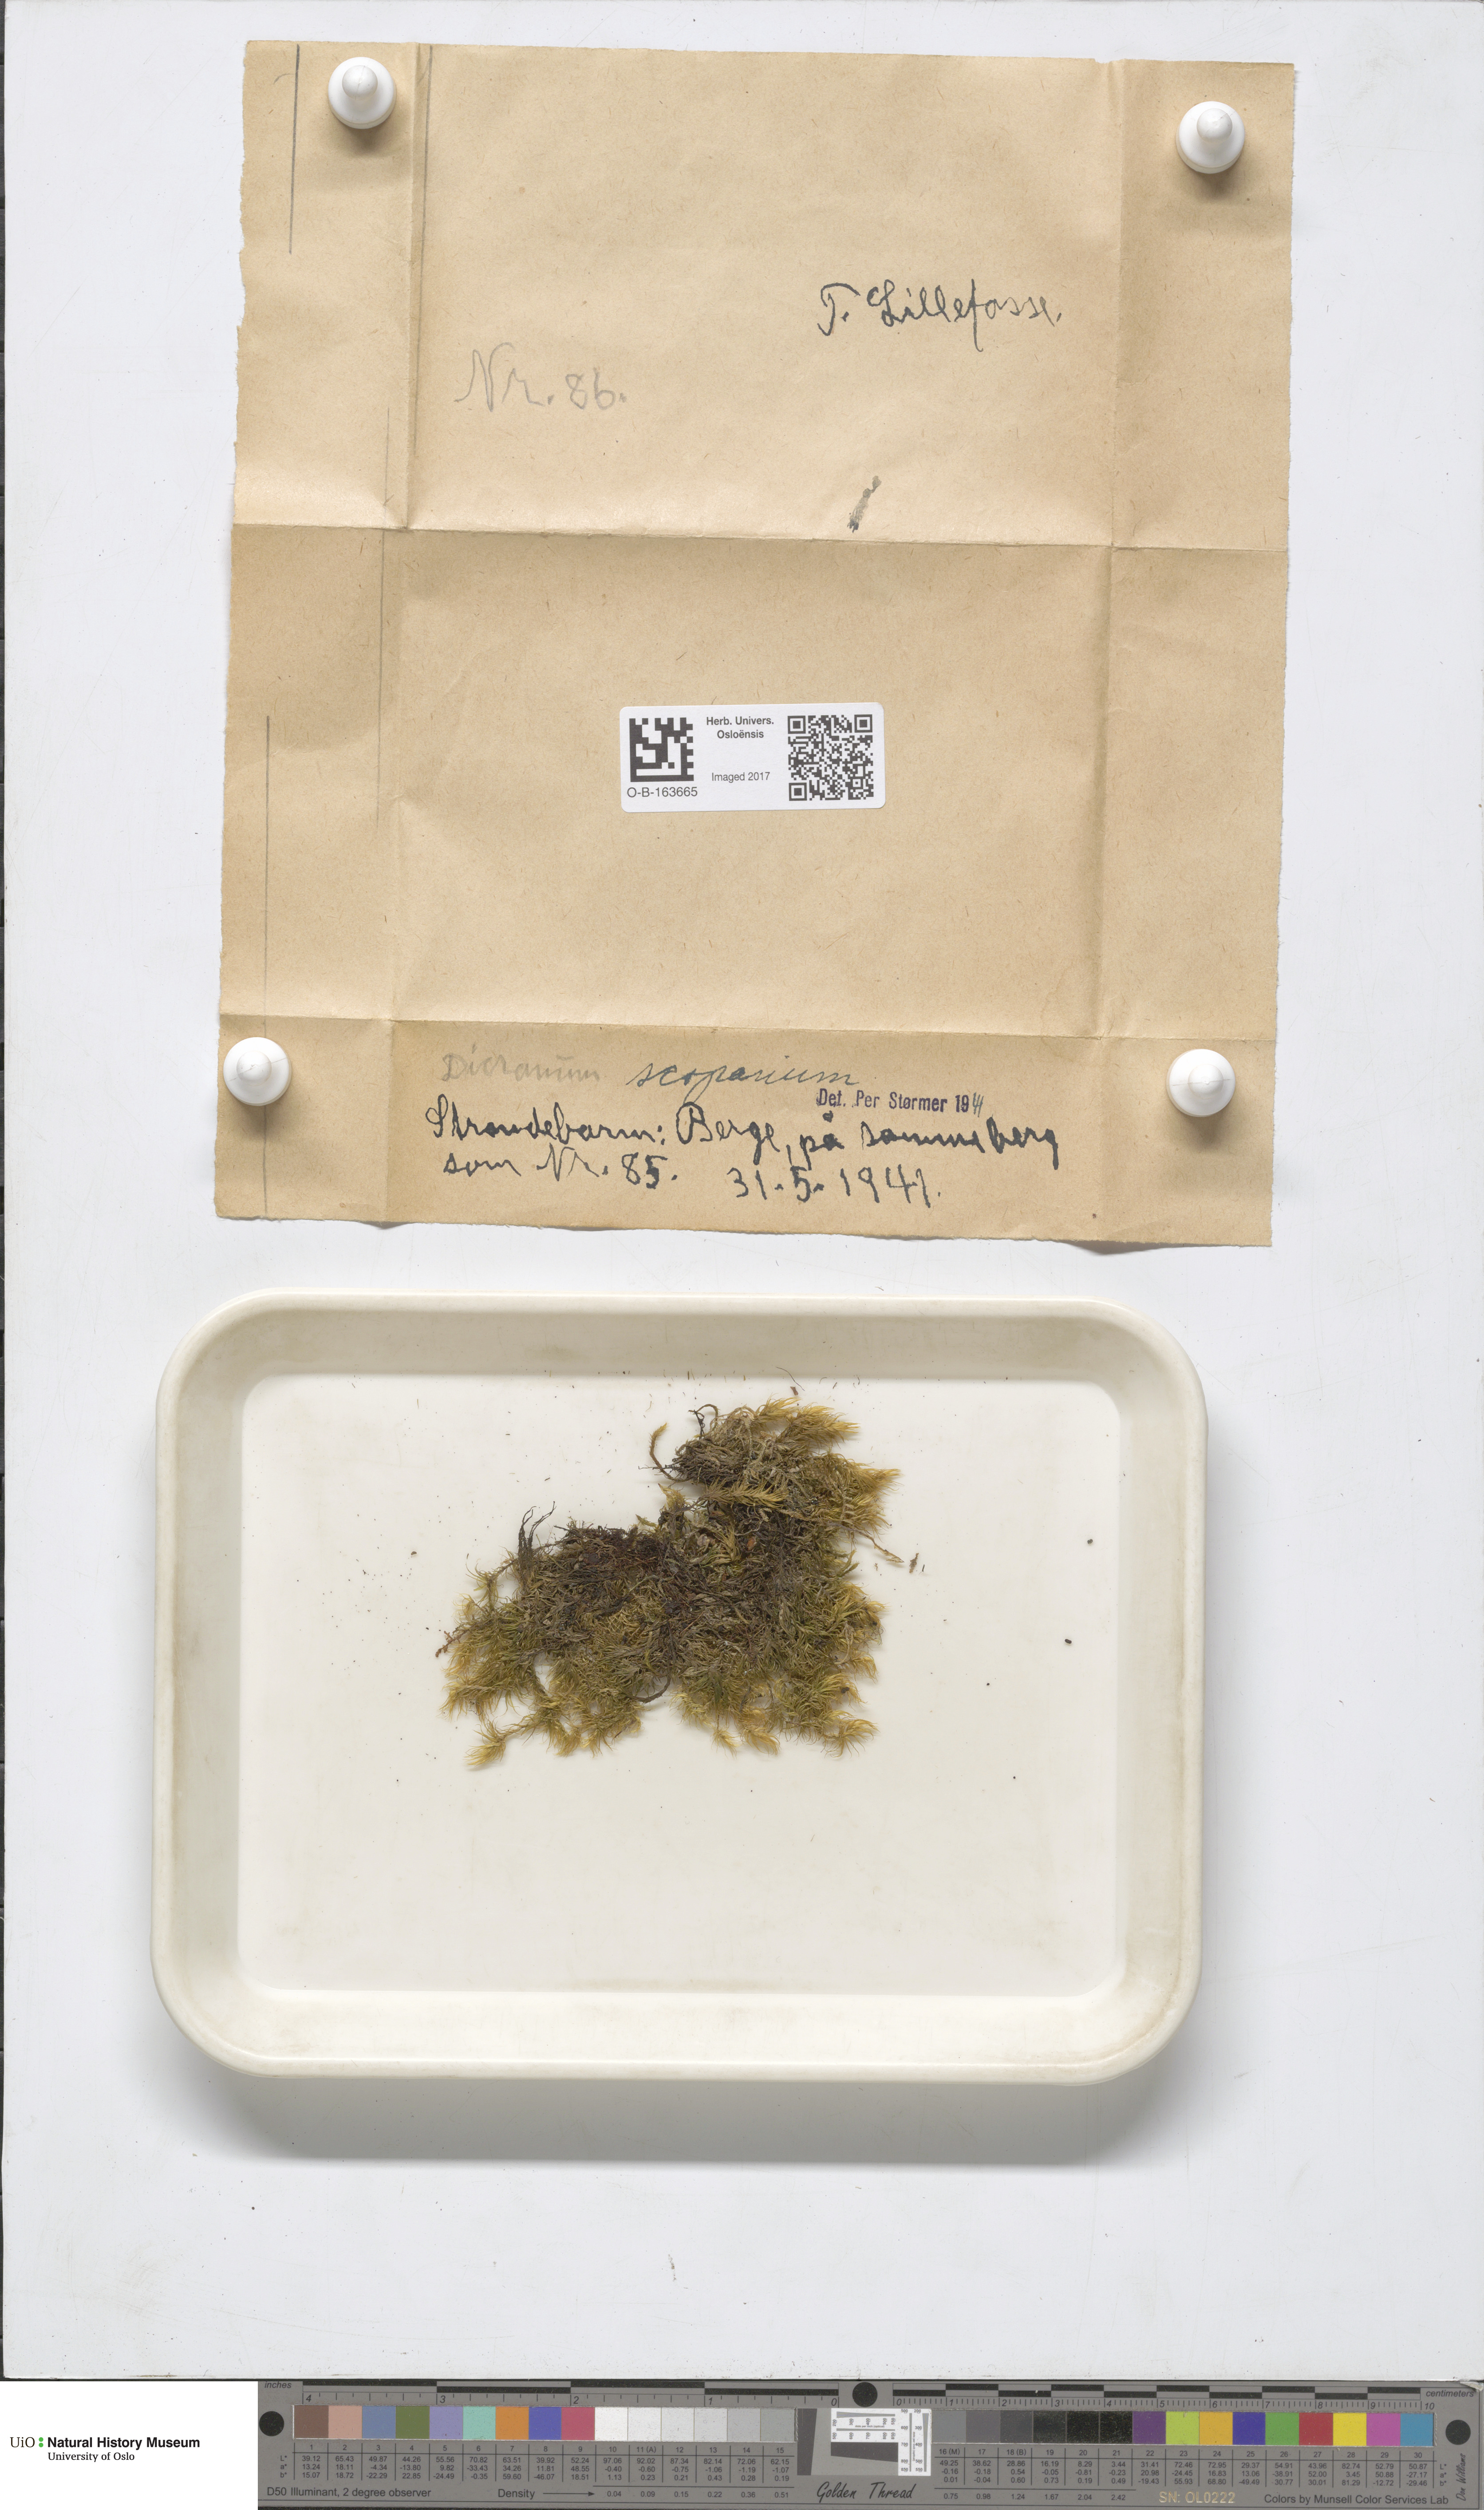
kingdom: Plantae
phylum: Bryophyta
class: Bryopsida
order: Dicranales
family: Dicranaceae
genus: Dicranum
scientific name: Dicranum scoparium
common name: Broom fork-moss
